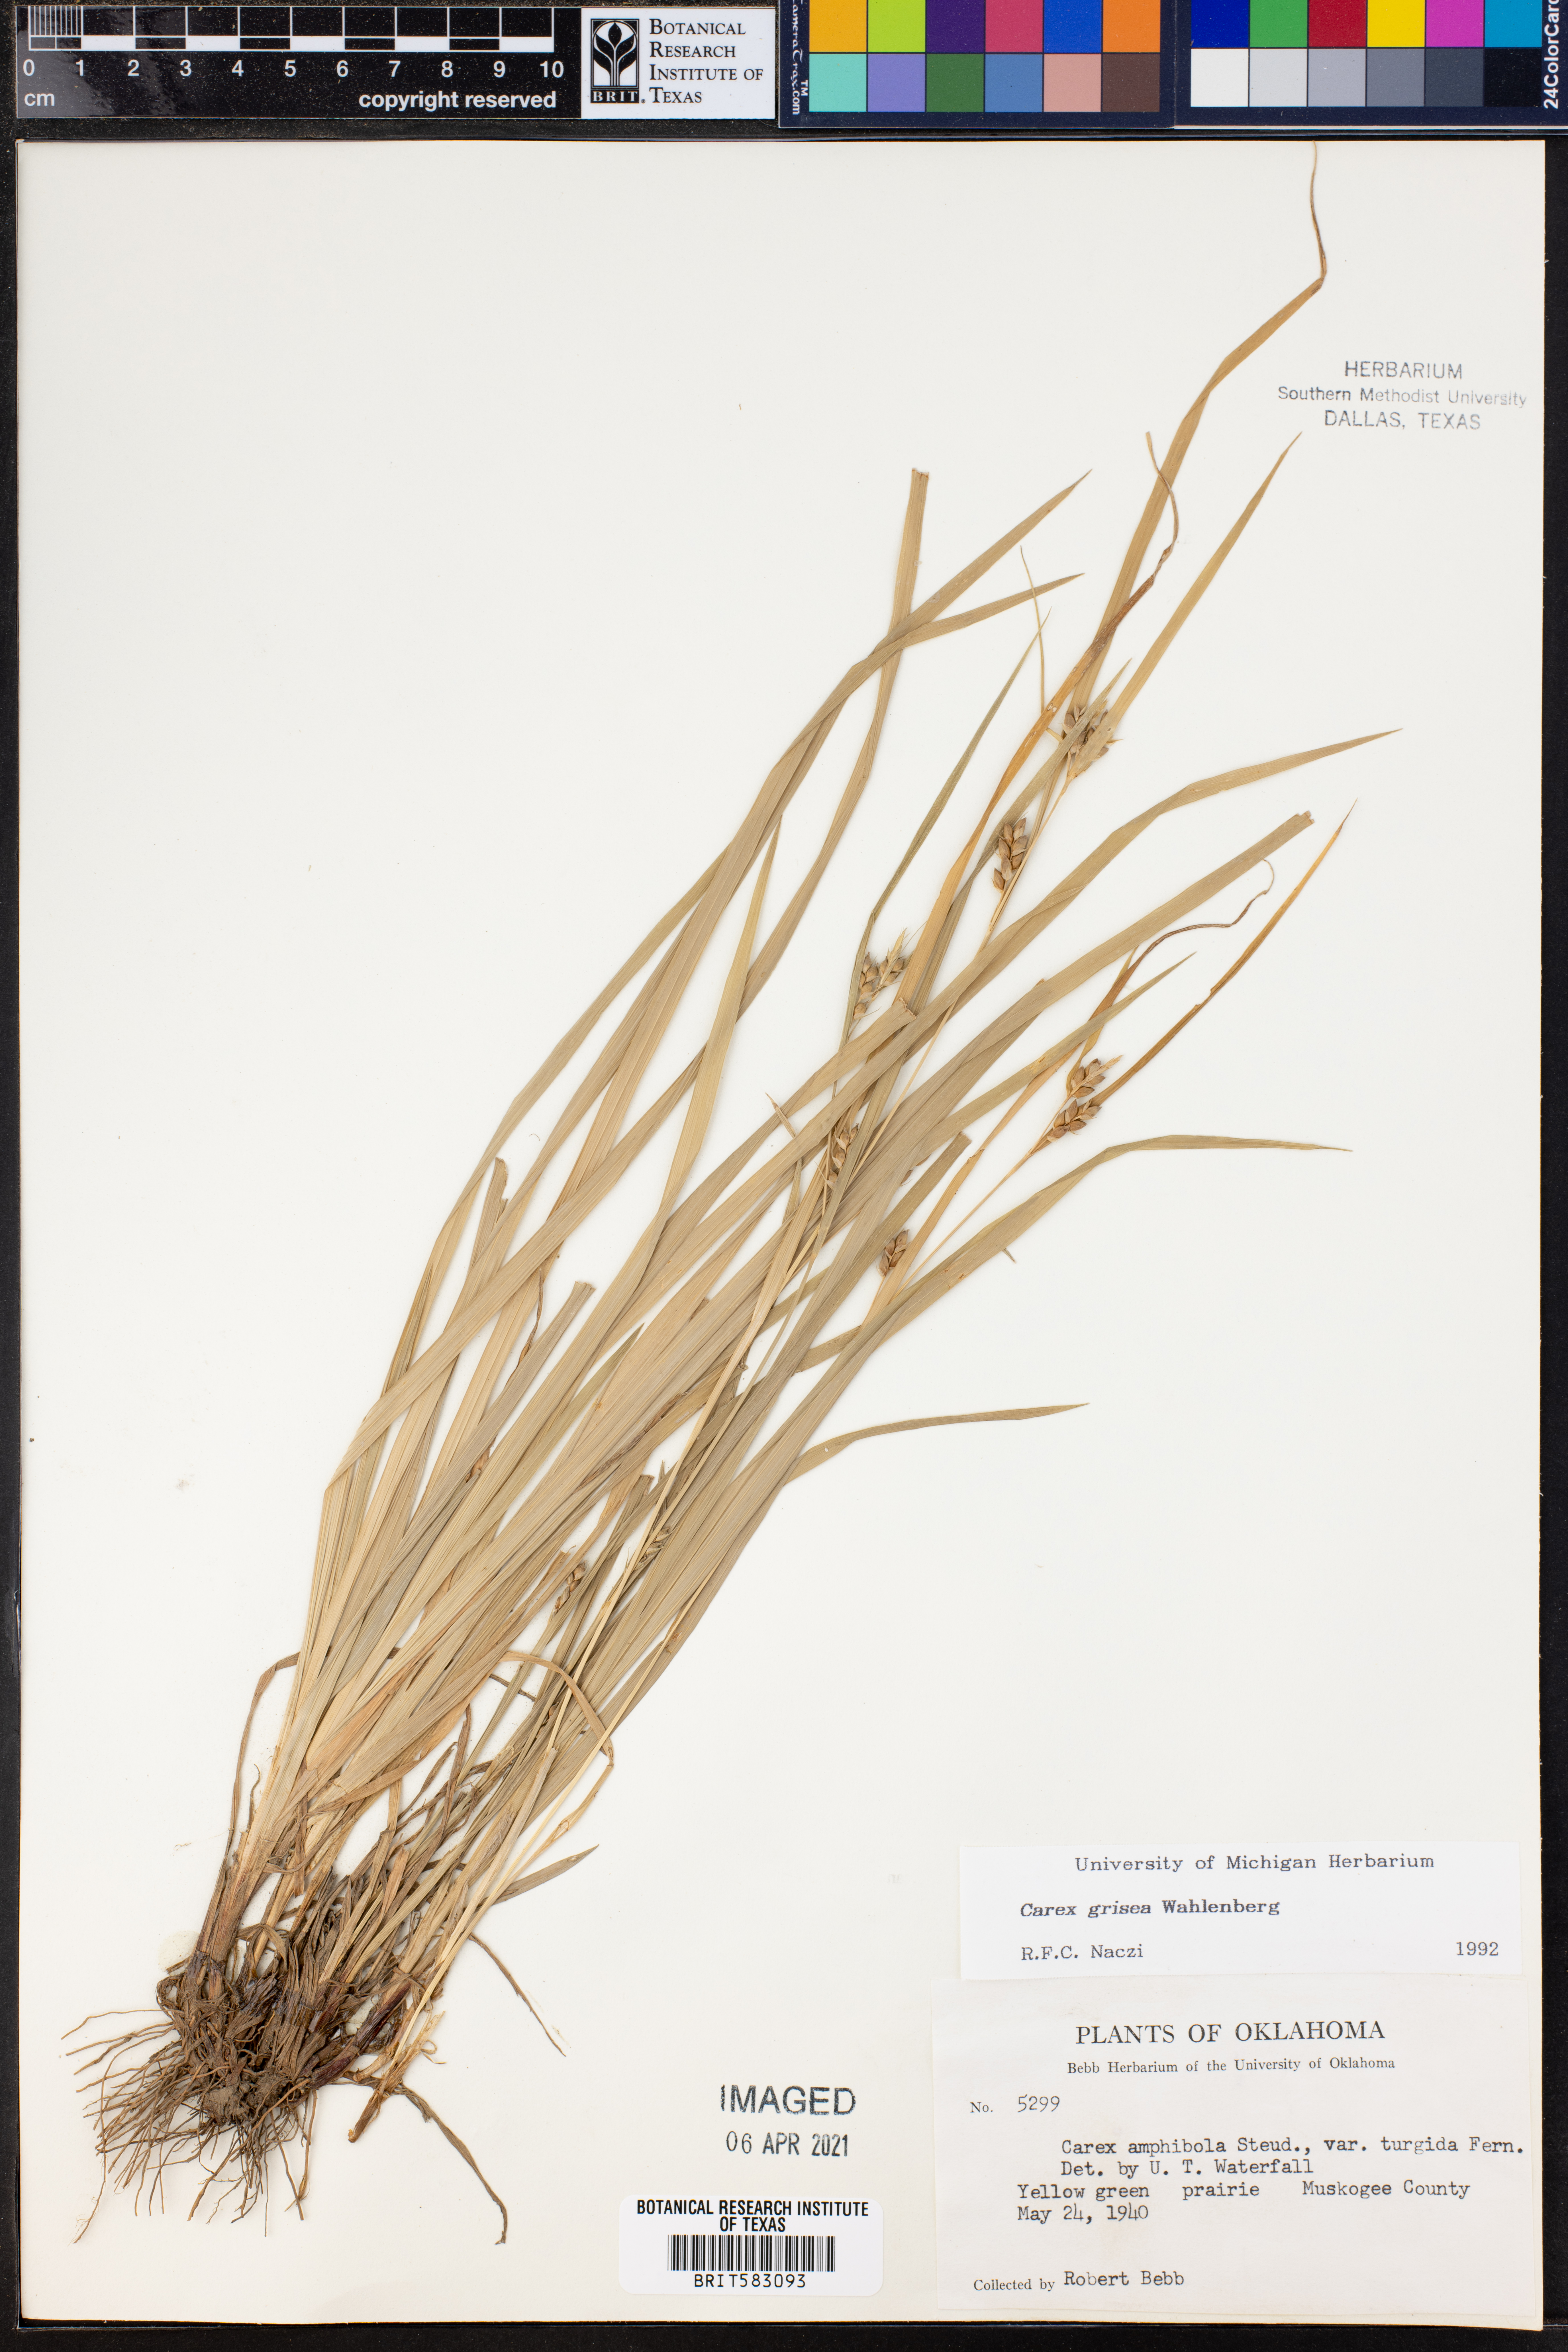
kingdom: Plantae
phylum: Tracheophyta
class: Liliopsida
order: Poales
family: Cyperaceae
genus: Carex
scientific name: Carex grisea
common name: Eastern narrow-leaved sedge
